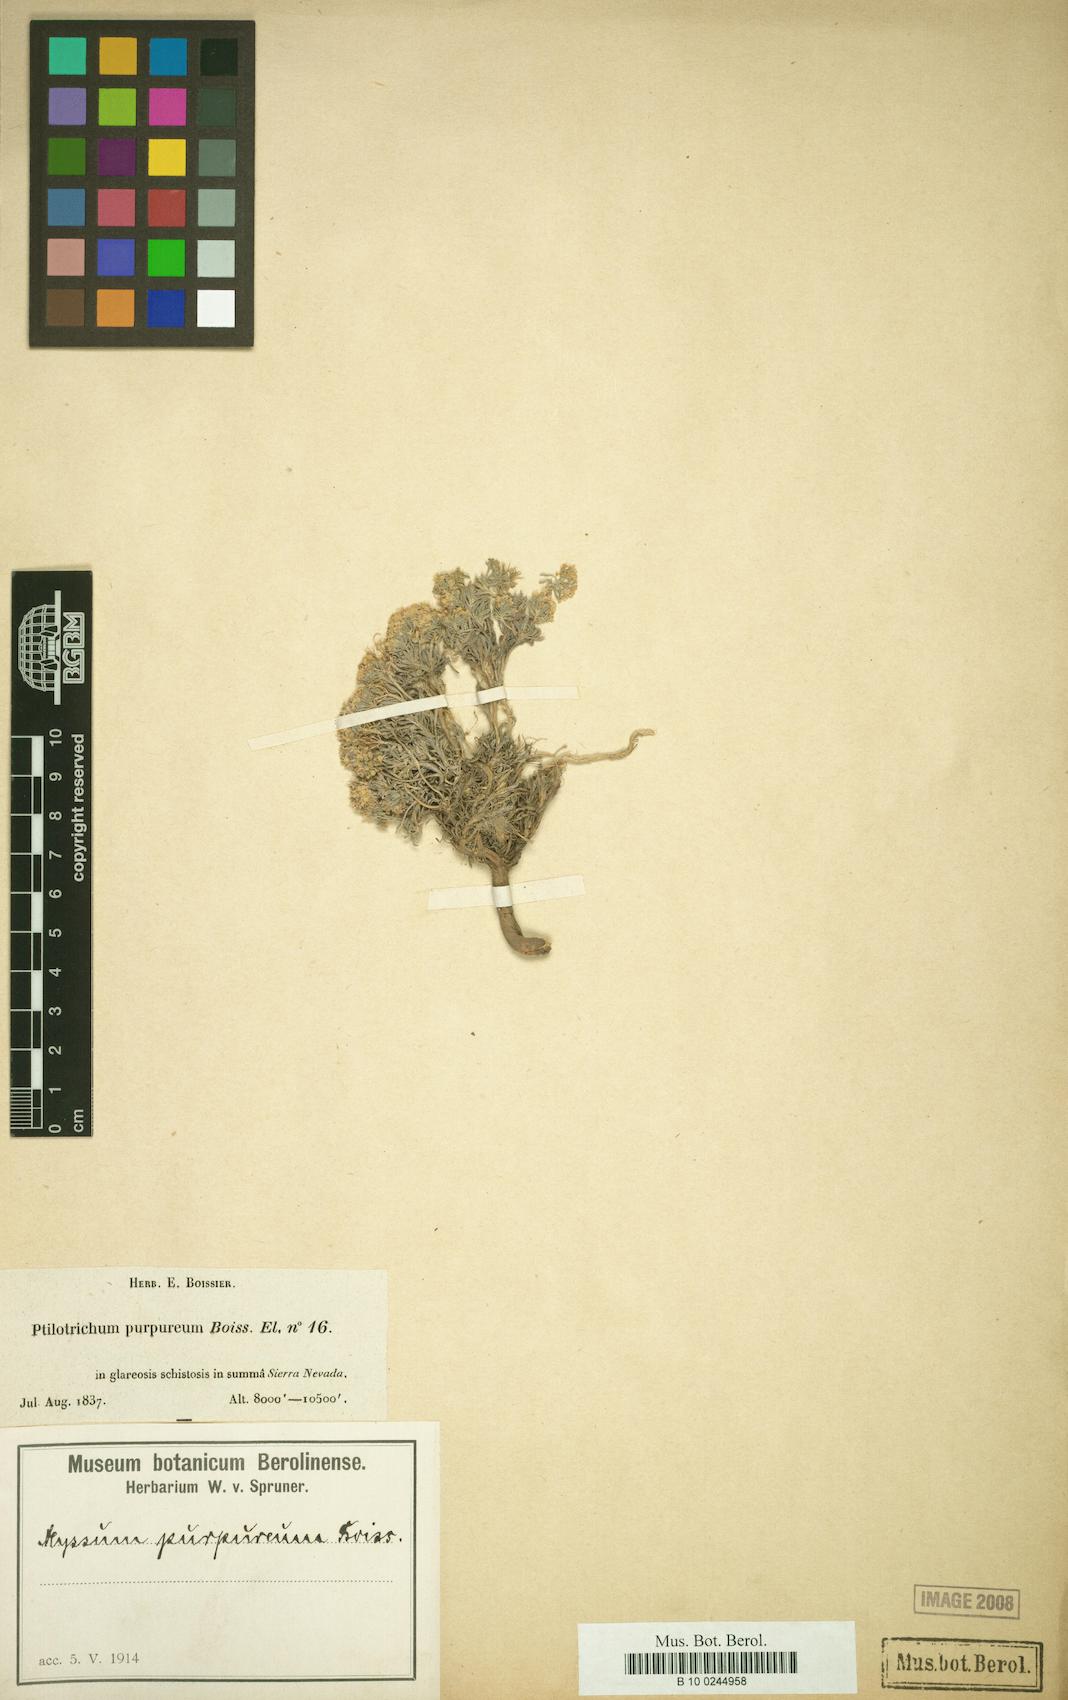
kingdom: Plantae
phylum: Tracheophyta
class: Magnoliopsida
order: Brassicales
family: Brassicaceae
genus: Hormathophylla
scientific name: Hormathophylla purpurea
